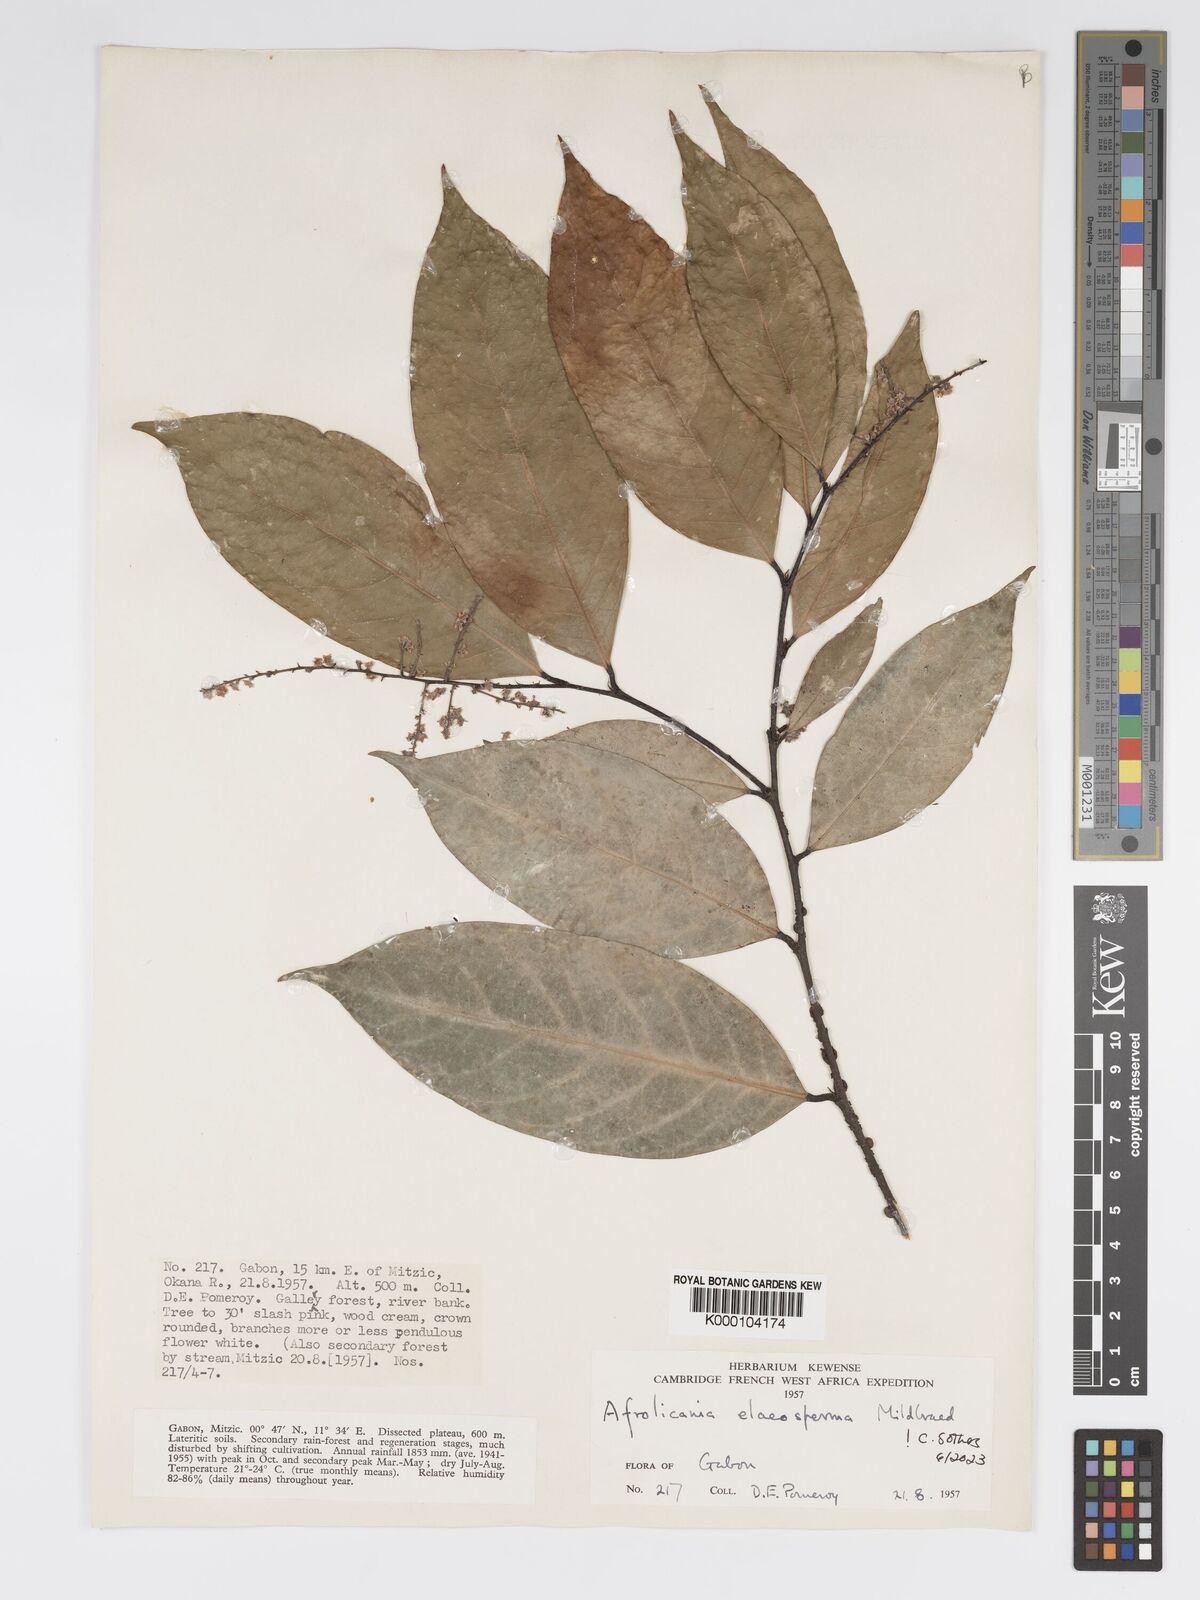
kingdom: Plantae
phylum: Tracheophyta
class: Magnoliopsida
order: Malpighiales
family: Chrysobalanaceae
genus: Afrolicania
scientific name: Afrolicania elaeosperma
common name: Nikko
